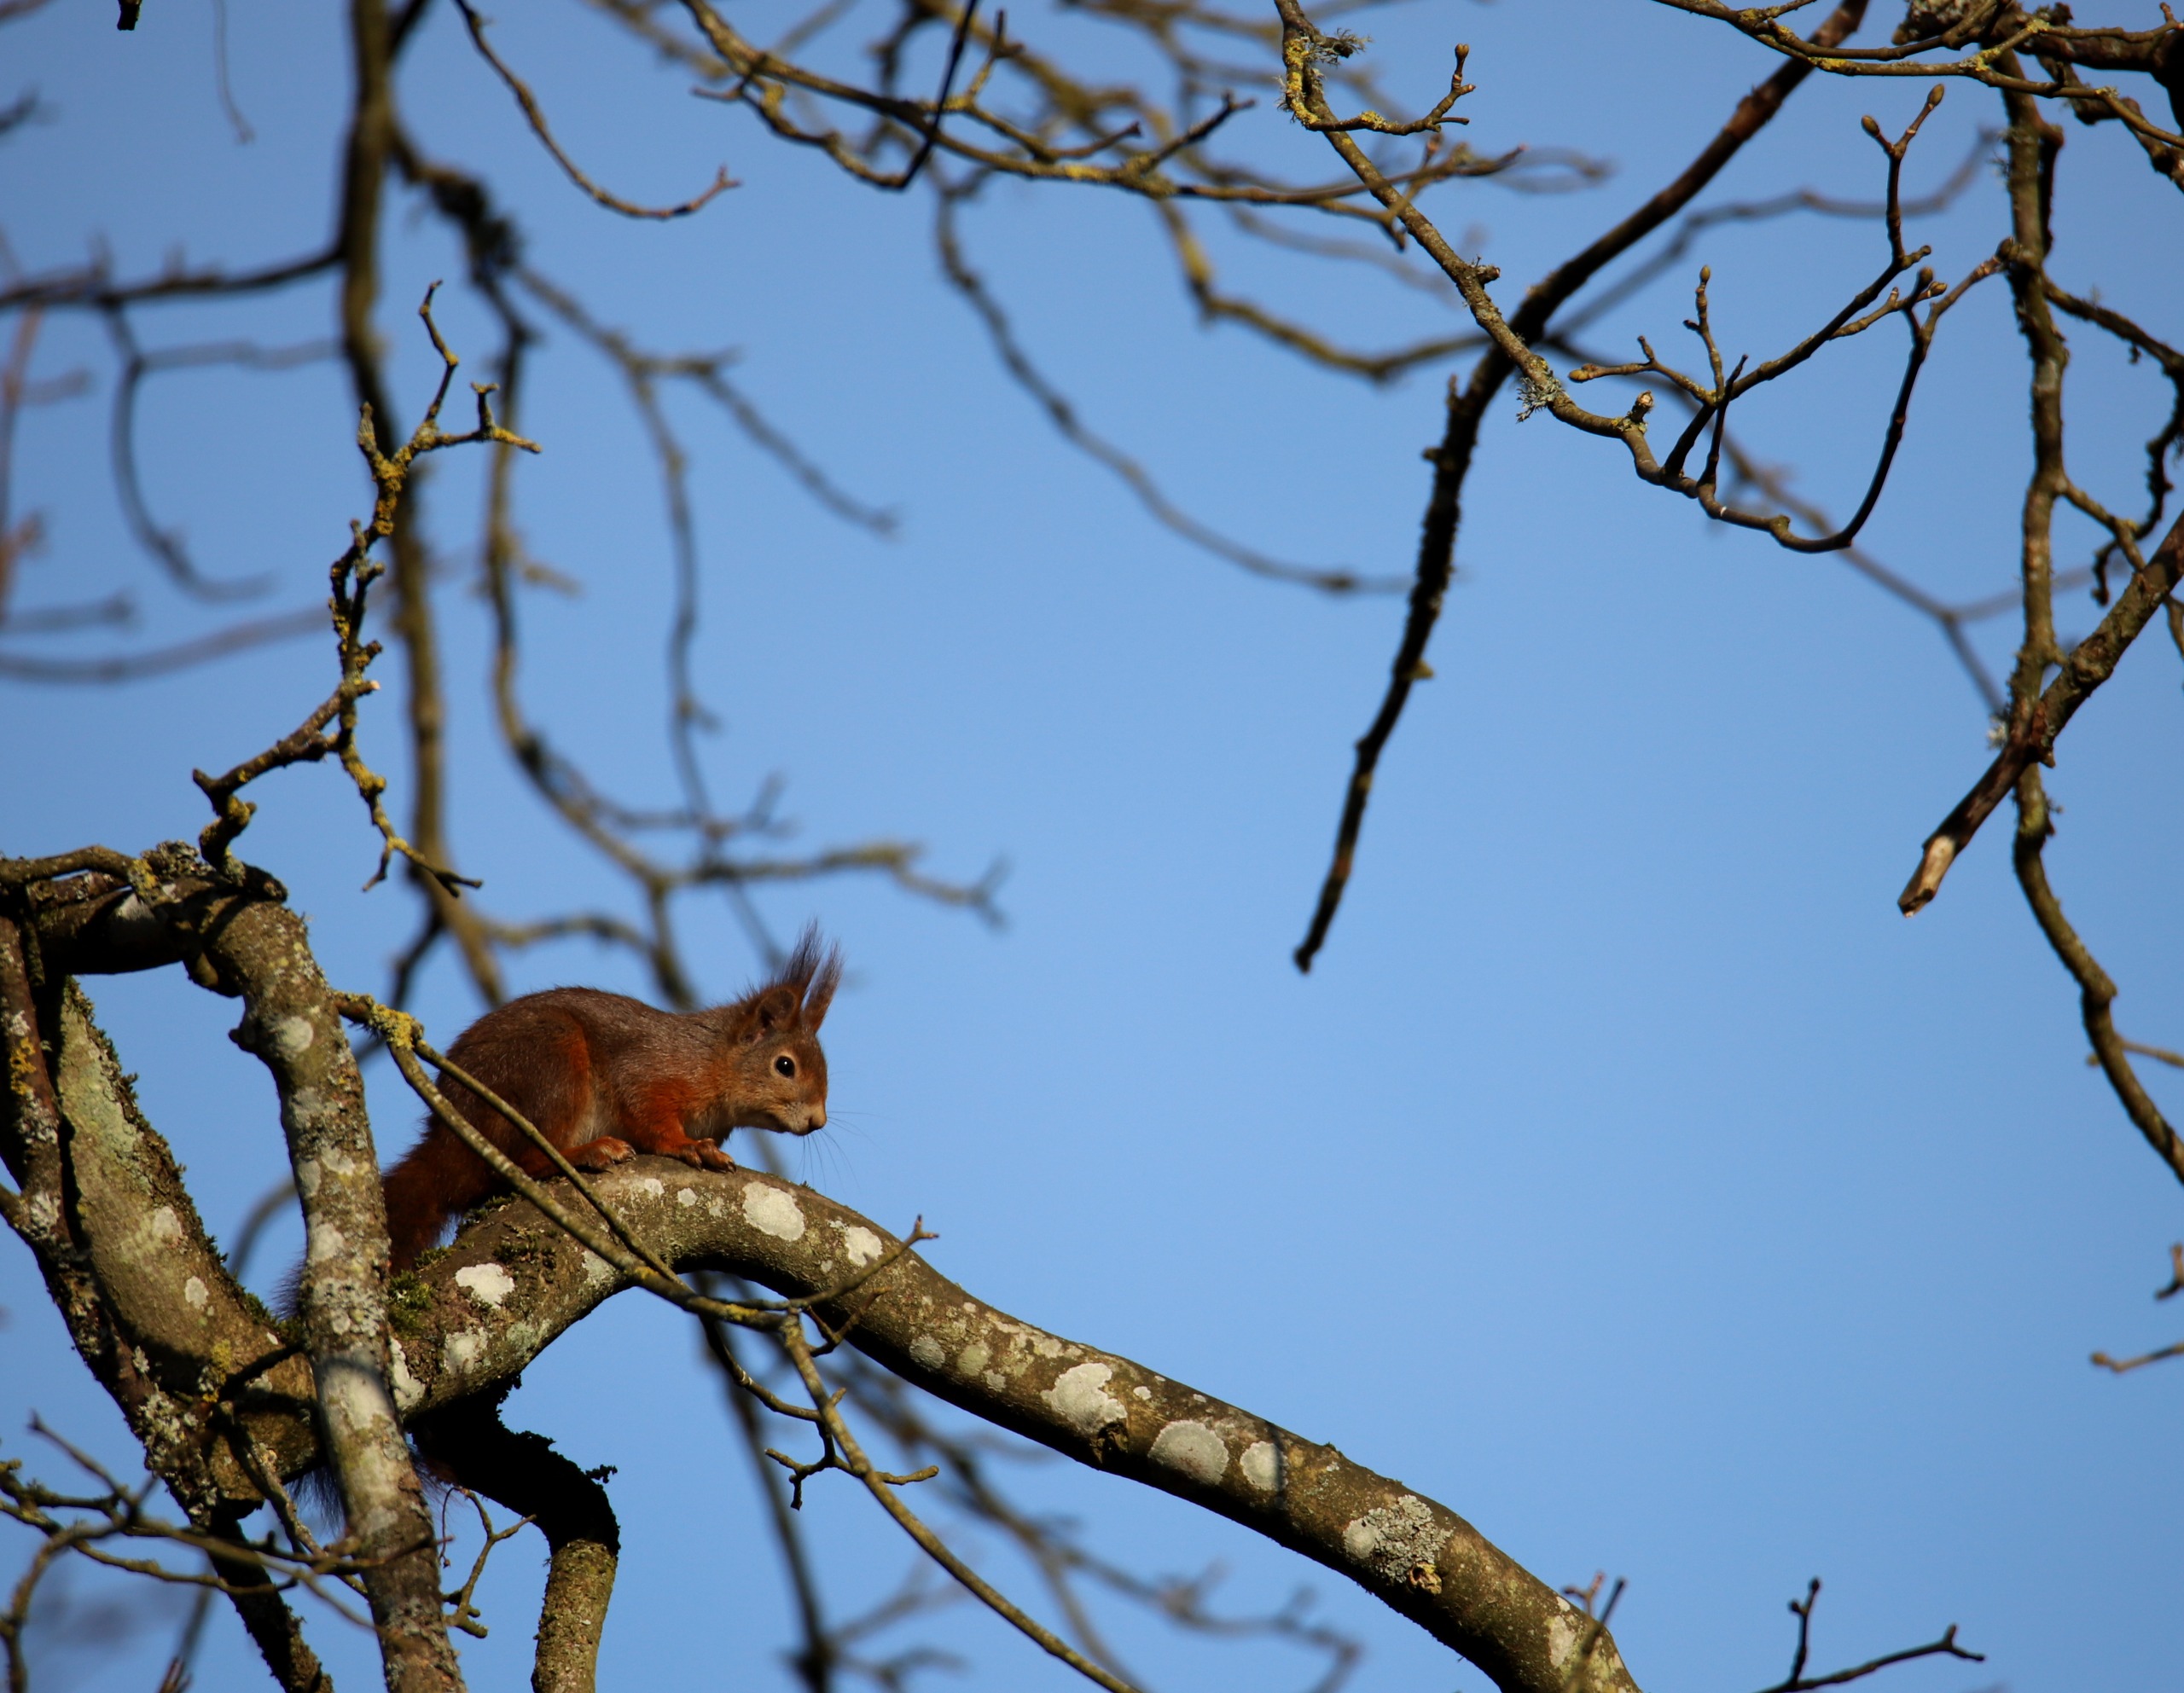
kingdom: Animalia
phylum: Chordata
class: Mammalia
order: Rodentia
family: Sciuridae
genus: Sciurus
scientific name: Sciurus vulgaris
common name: Egern
